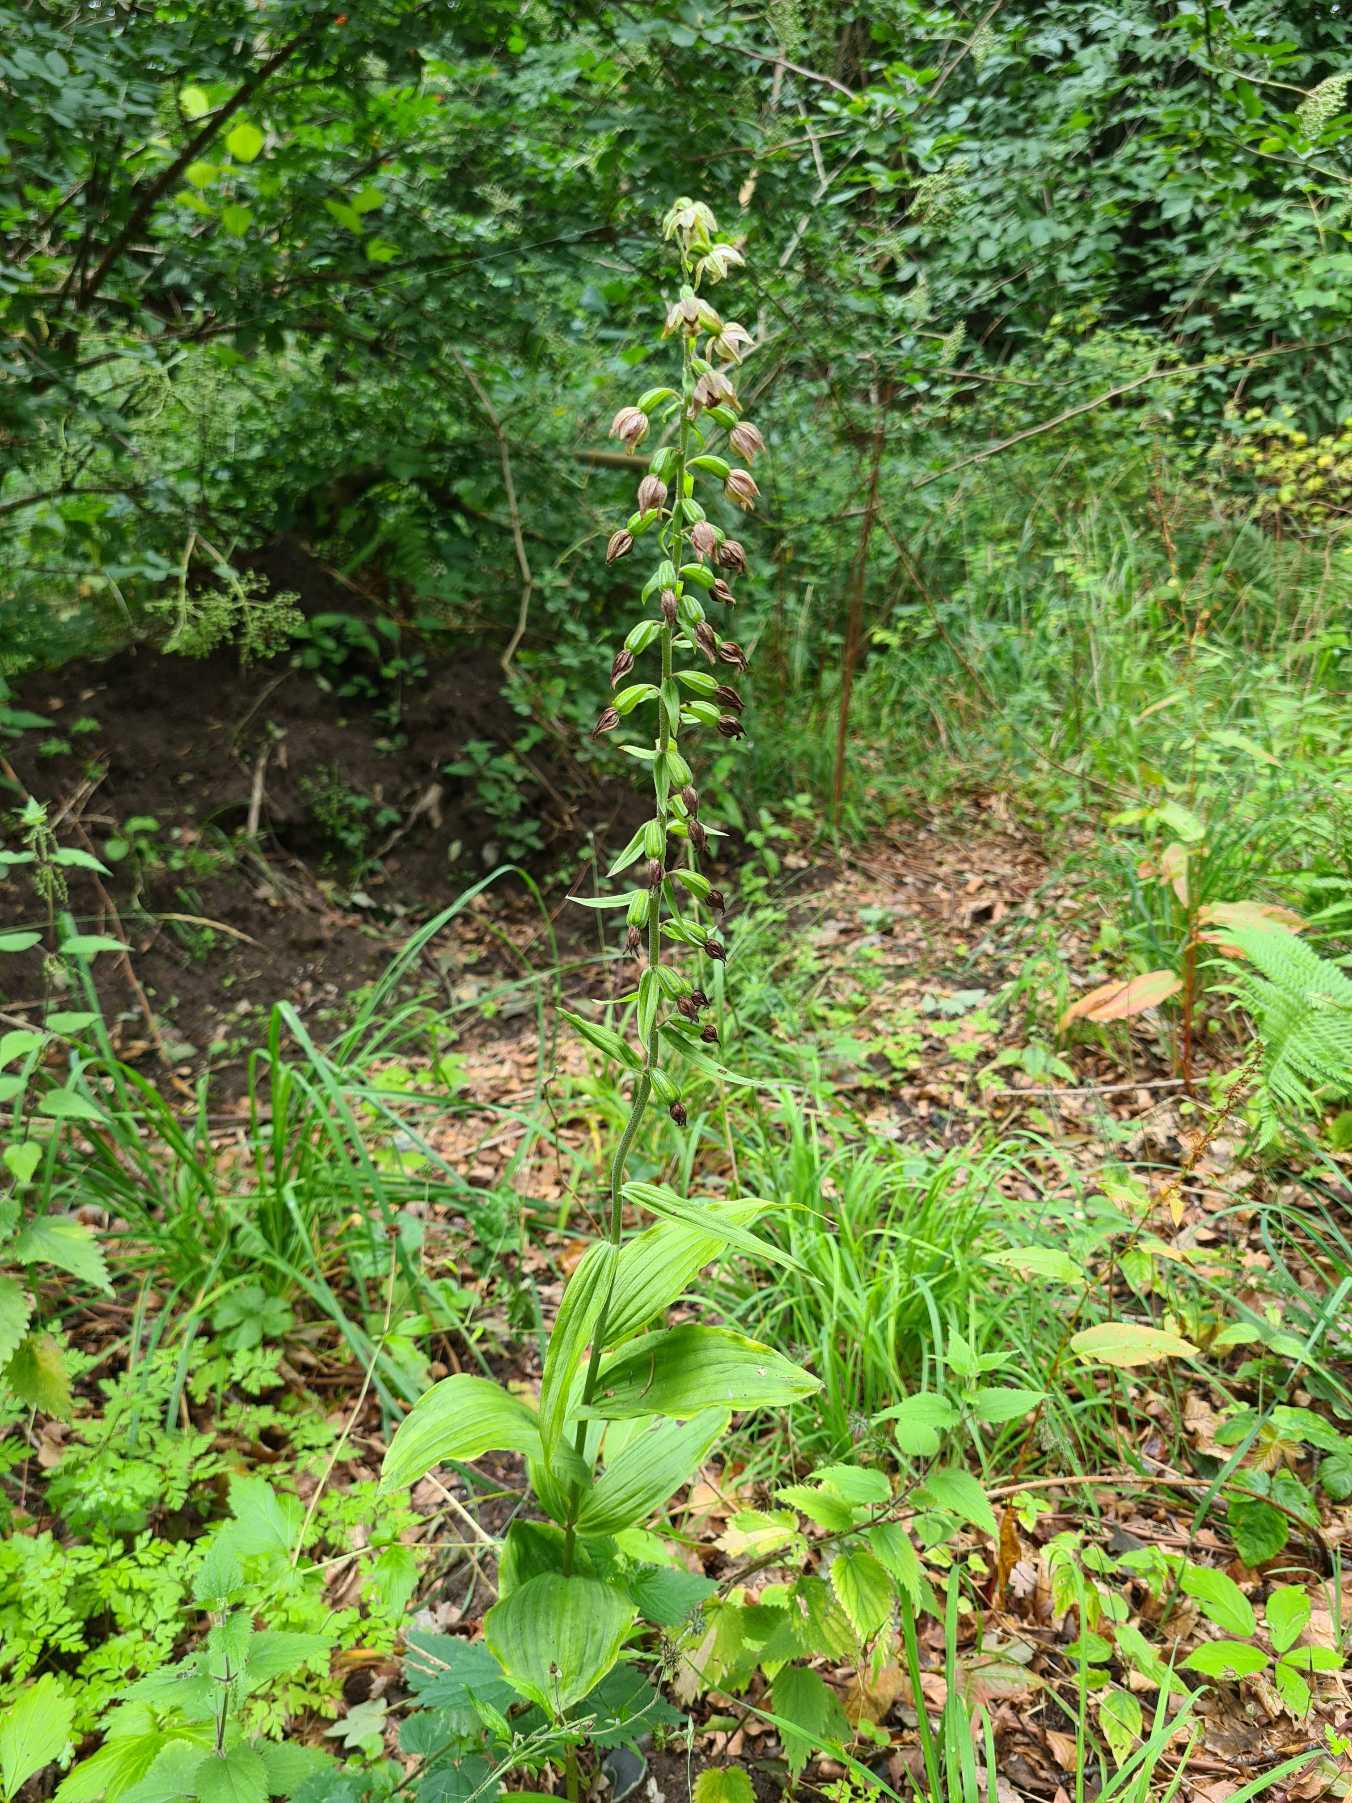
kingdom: Plantae
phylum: Tracheophyta
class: Liliopsida
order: Asparagales
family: Orchidaceae
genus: Epipactis
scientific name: Epipactis helleborine
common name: Skov-hullæbe
